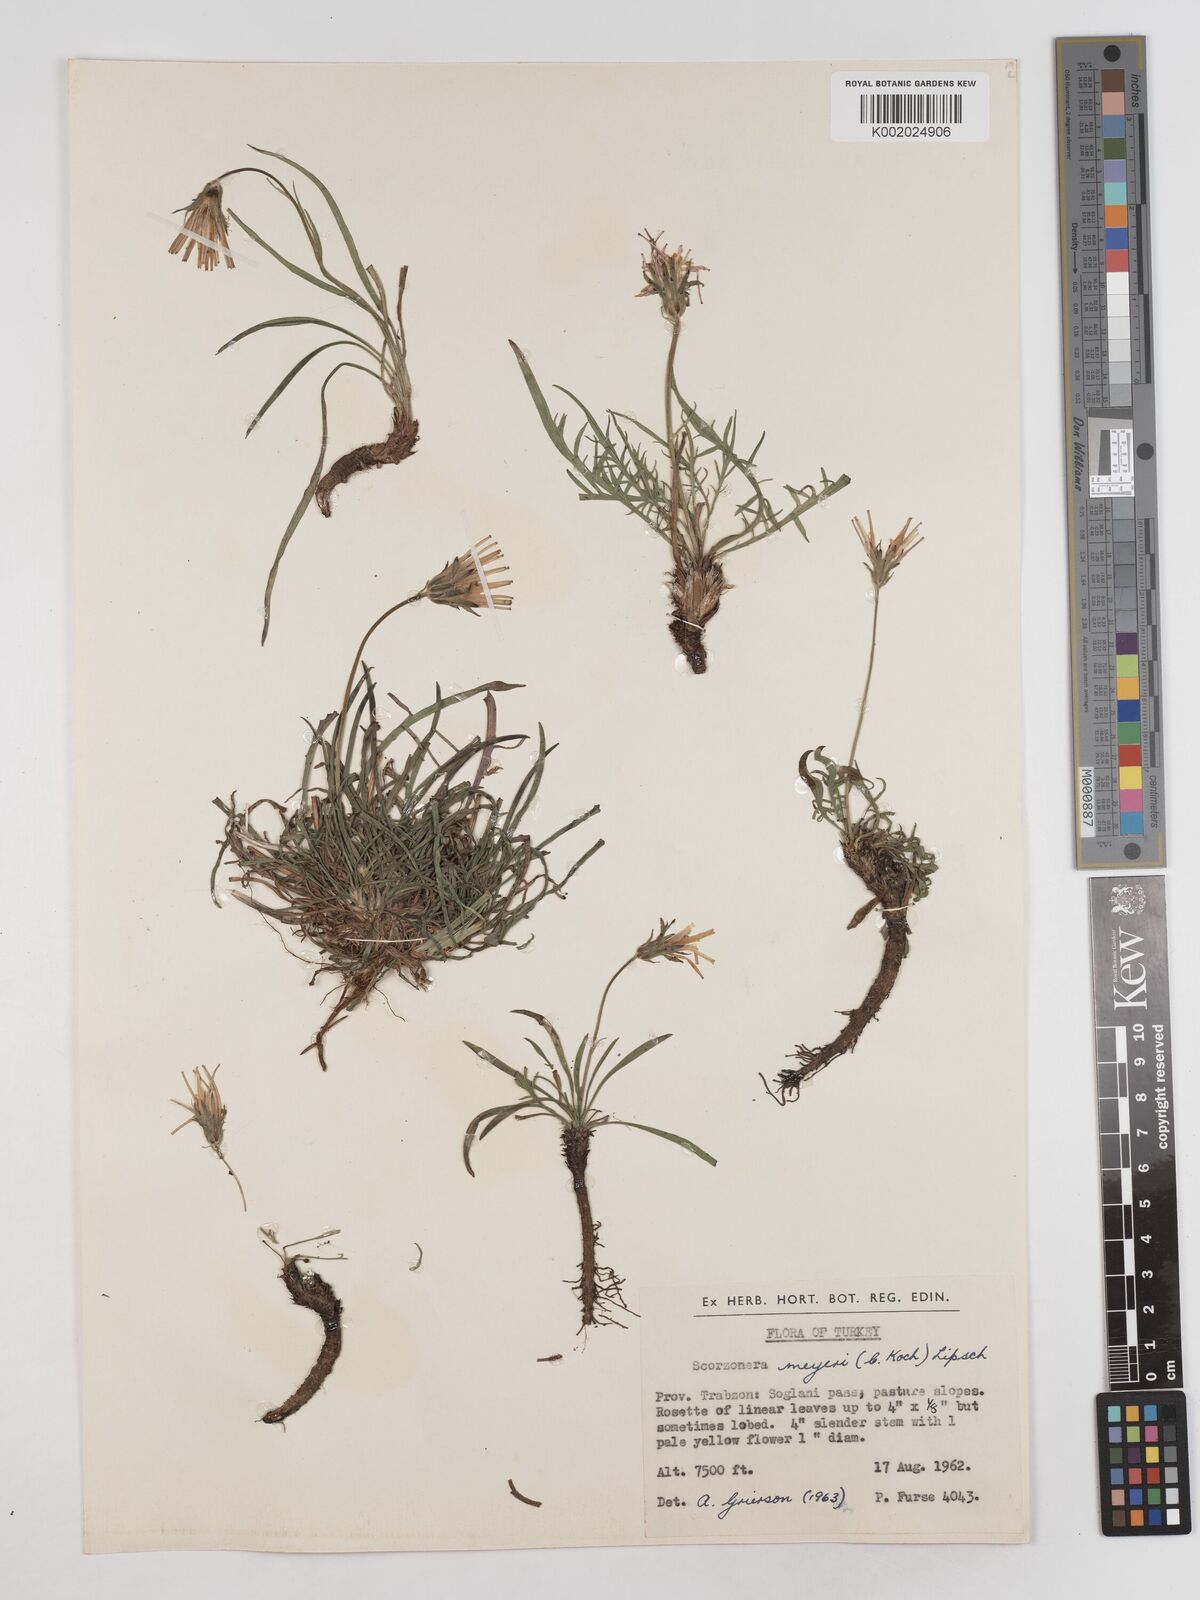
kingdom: Plantae
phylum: Tracheophyta
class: Magnoliopsida
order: Asterales
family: Asteraceae
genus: Scorzonera
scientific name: Scorzonera meyeri
